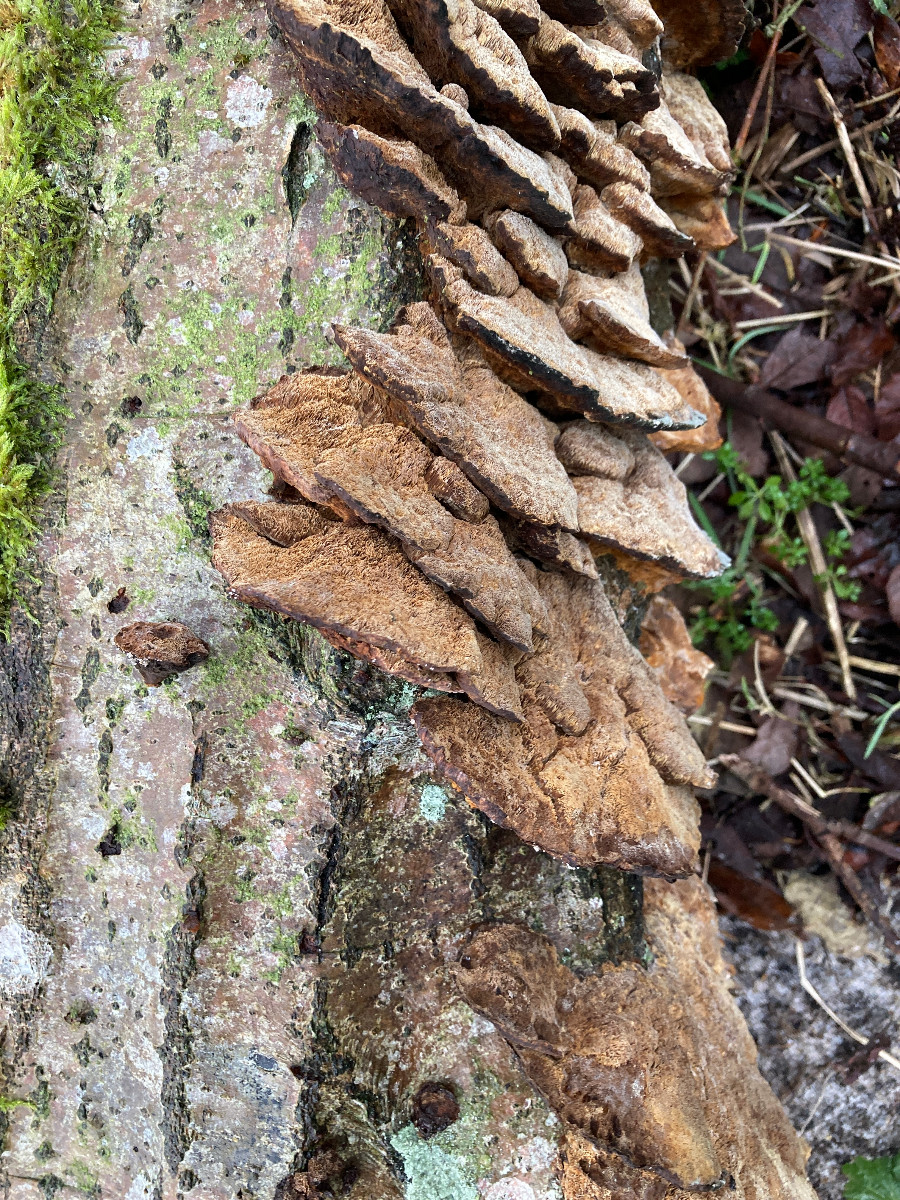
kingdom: Fungi
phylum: Basidiomycota
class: Agaricomycetes
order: Hymenochaetales
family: Hymenochaetaceae
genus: Xanthoporia
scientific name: Xanthoporia radiata
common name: elle-spejlporesvamp
